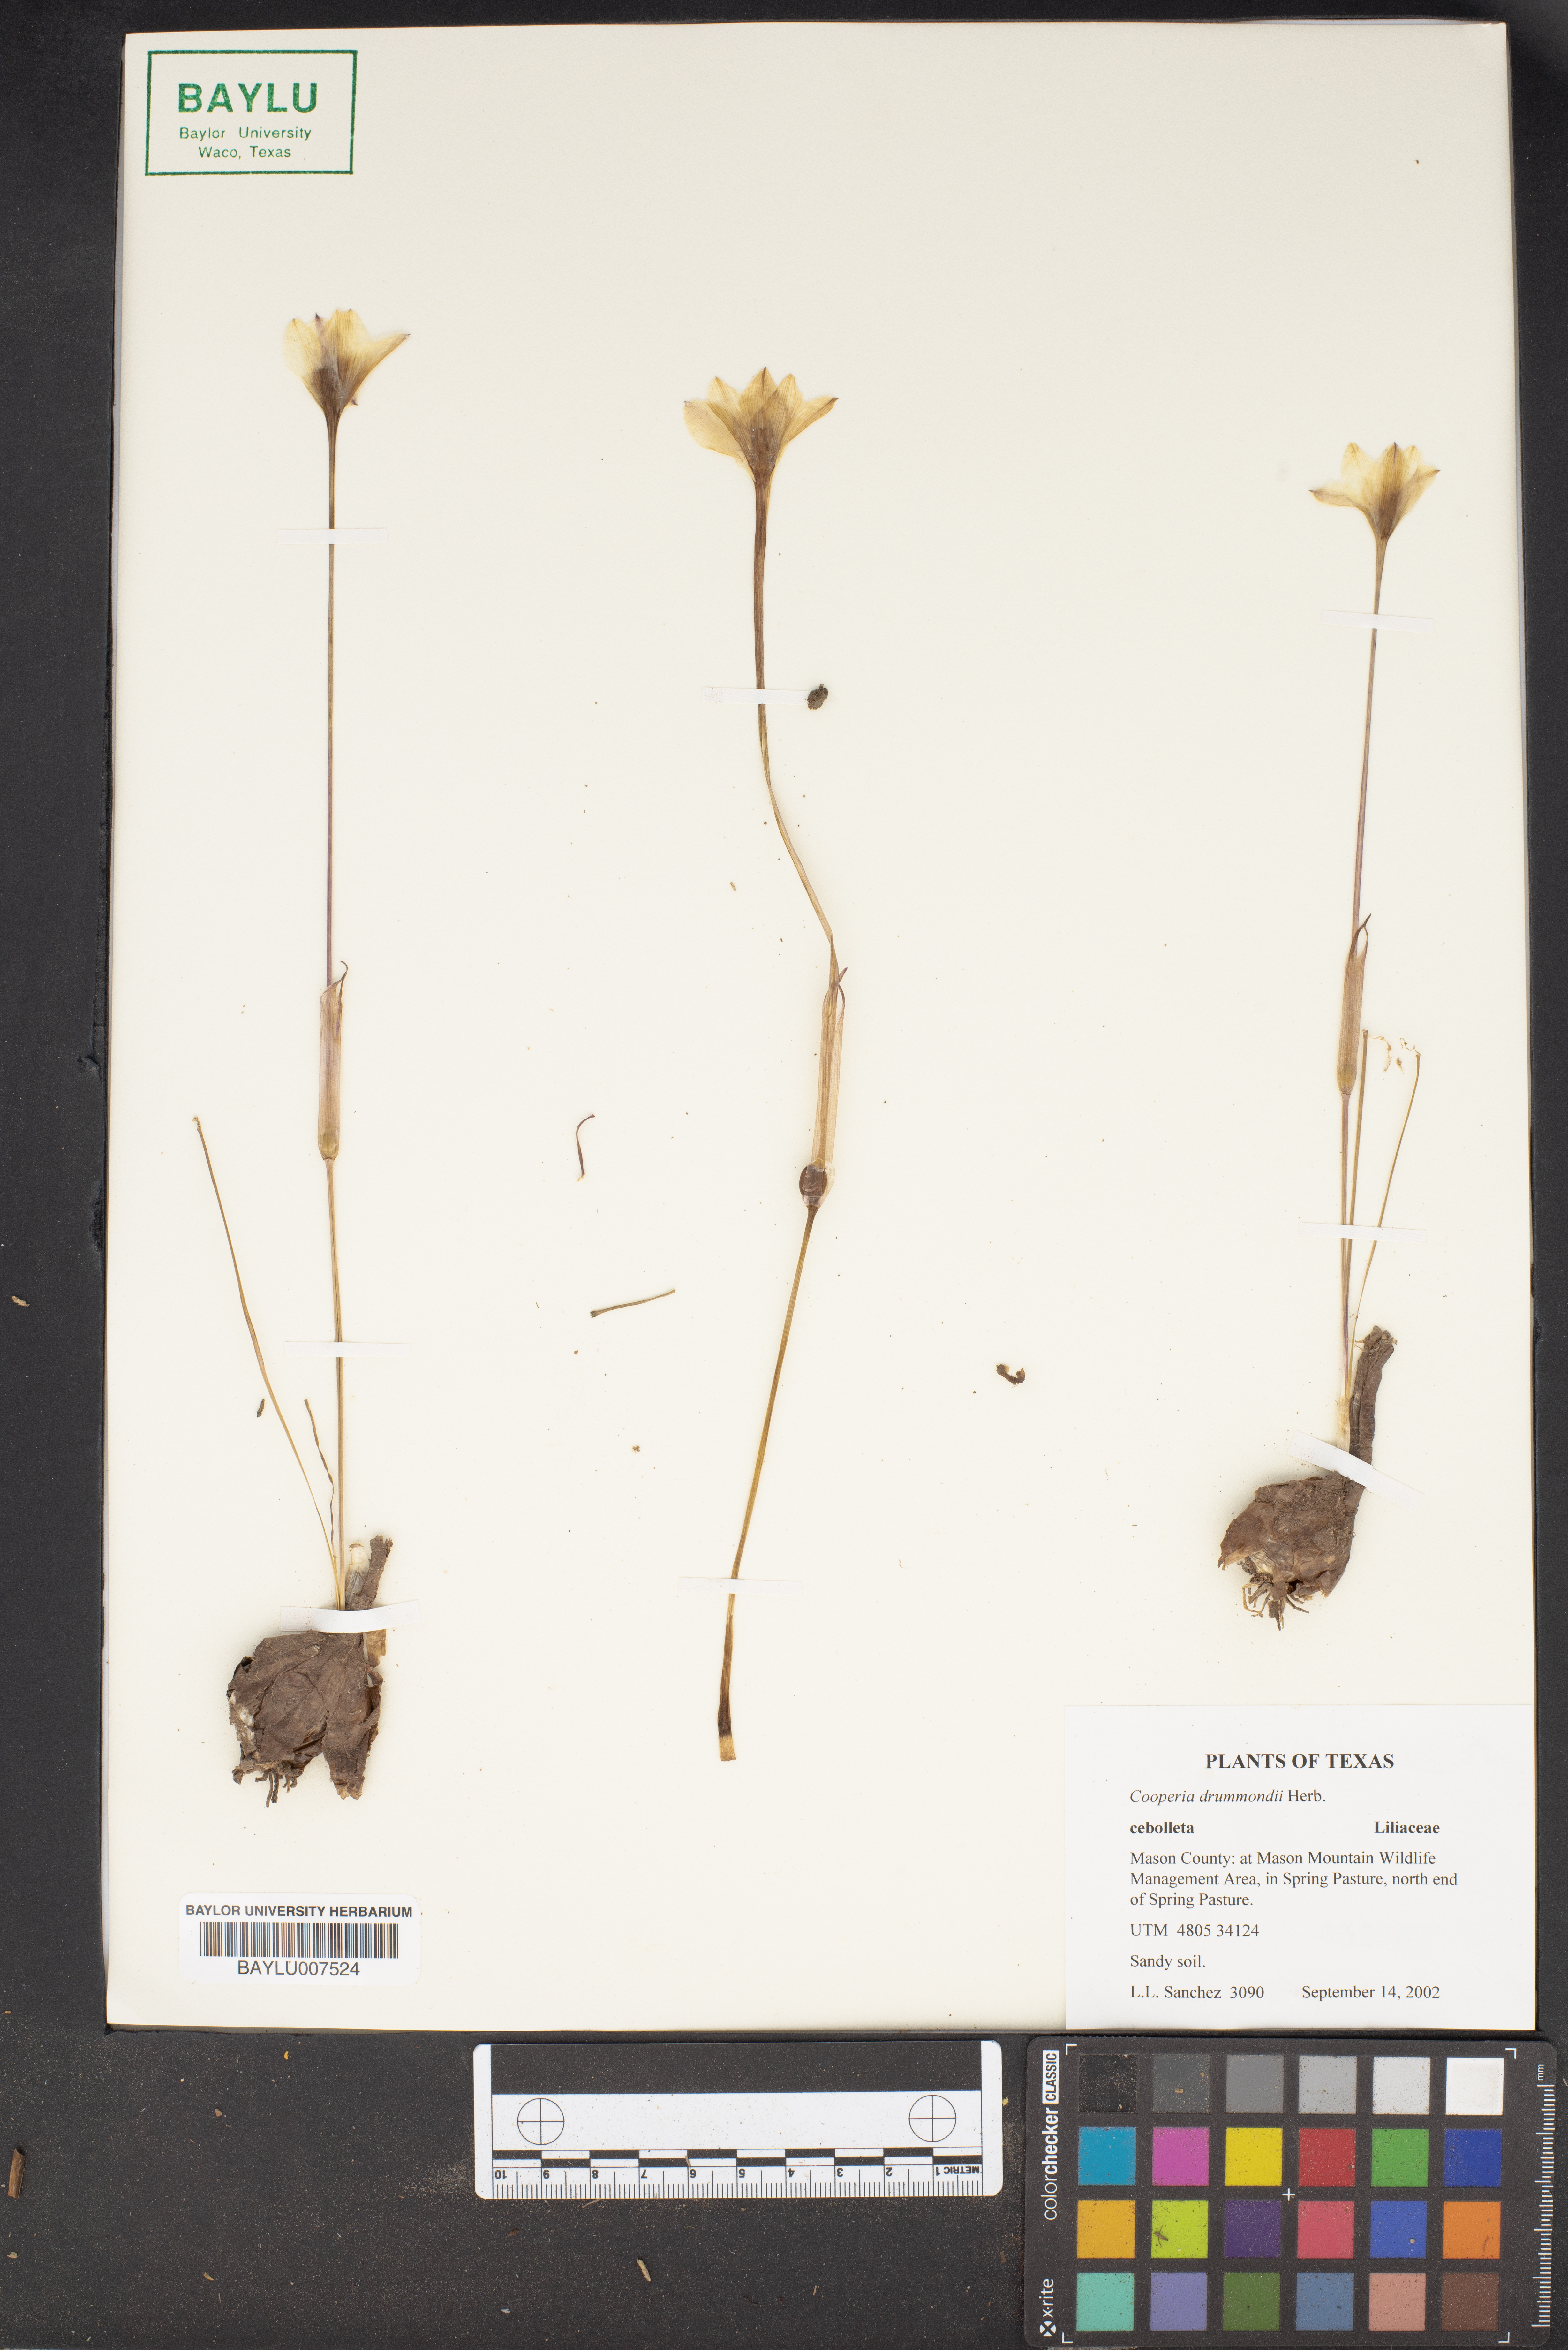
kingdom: Plantae
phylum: Tracheophyta
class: Liliopsida
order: Asparagales
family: Amaryllidaceae
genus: Zephyranthes
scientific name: Zephyranthes chlorosolen
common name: Evening rain-lily
